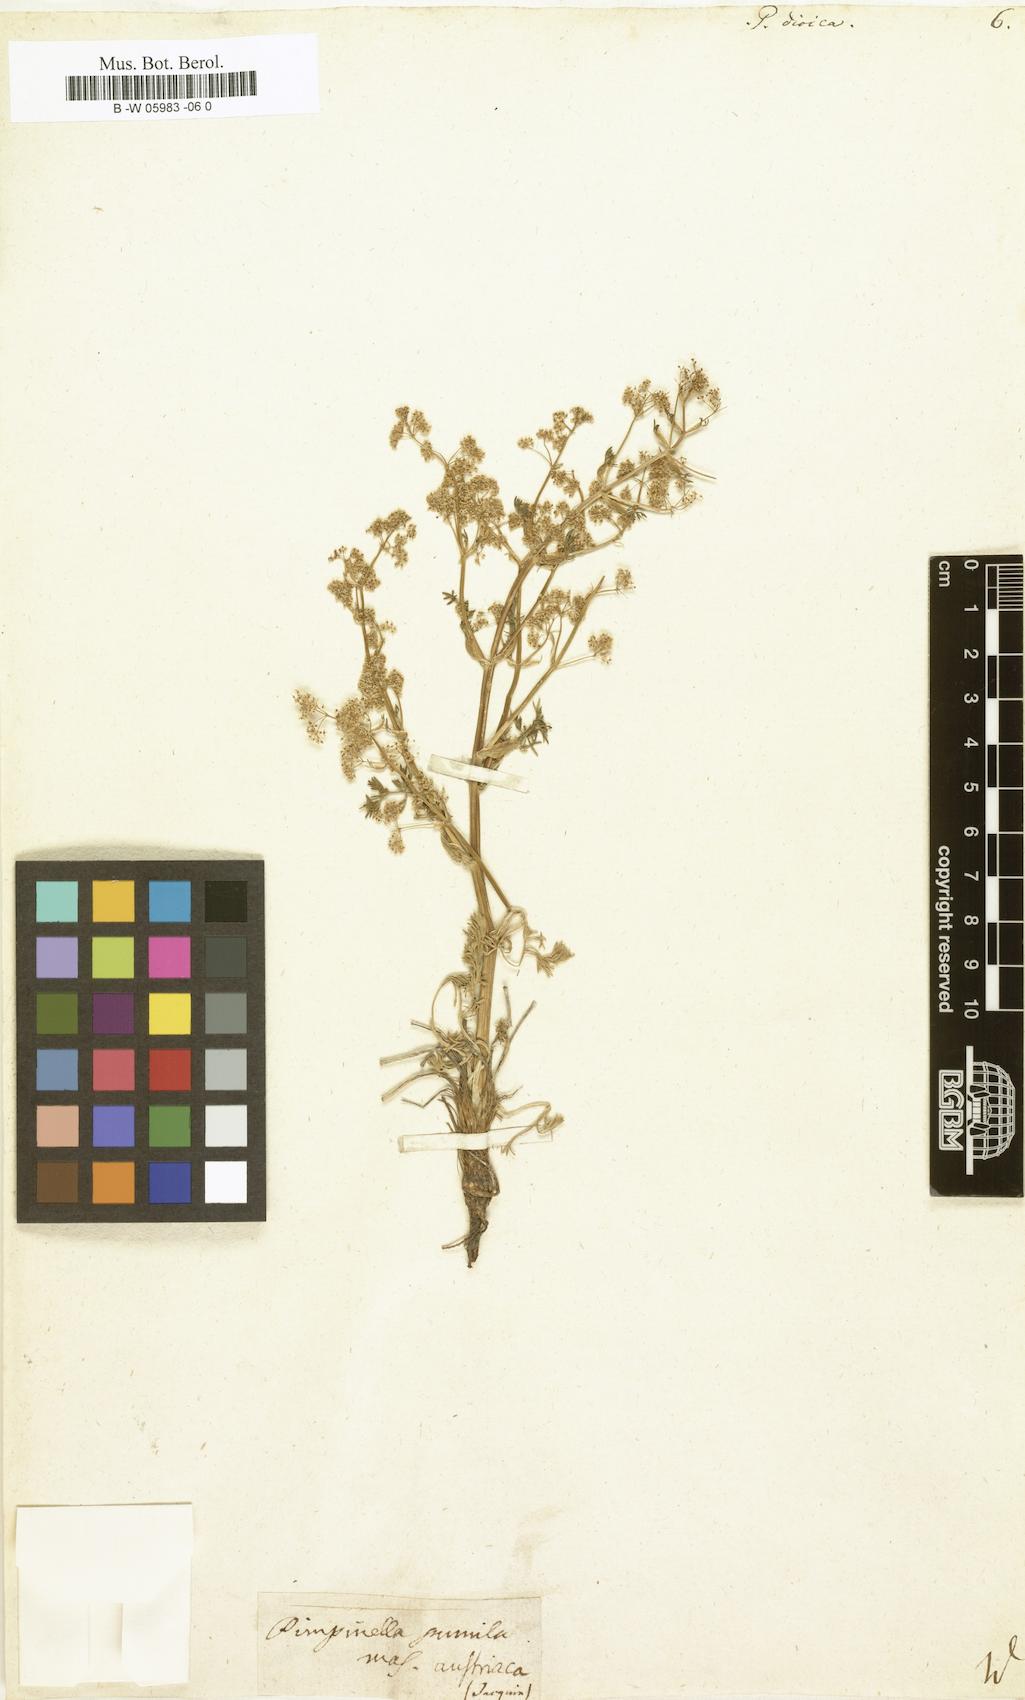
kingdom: Plantae
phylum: Tracheophyta
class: Magnoliopsida
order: Apiales
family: Apiaceae
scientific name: Apiaceae
